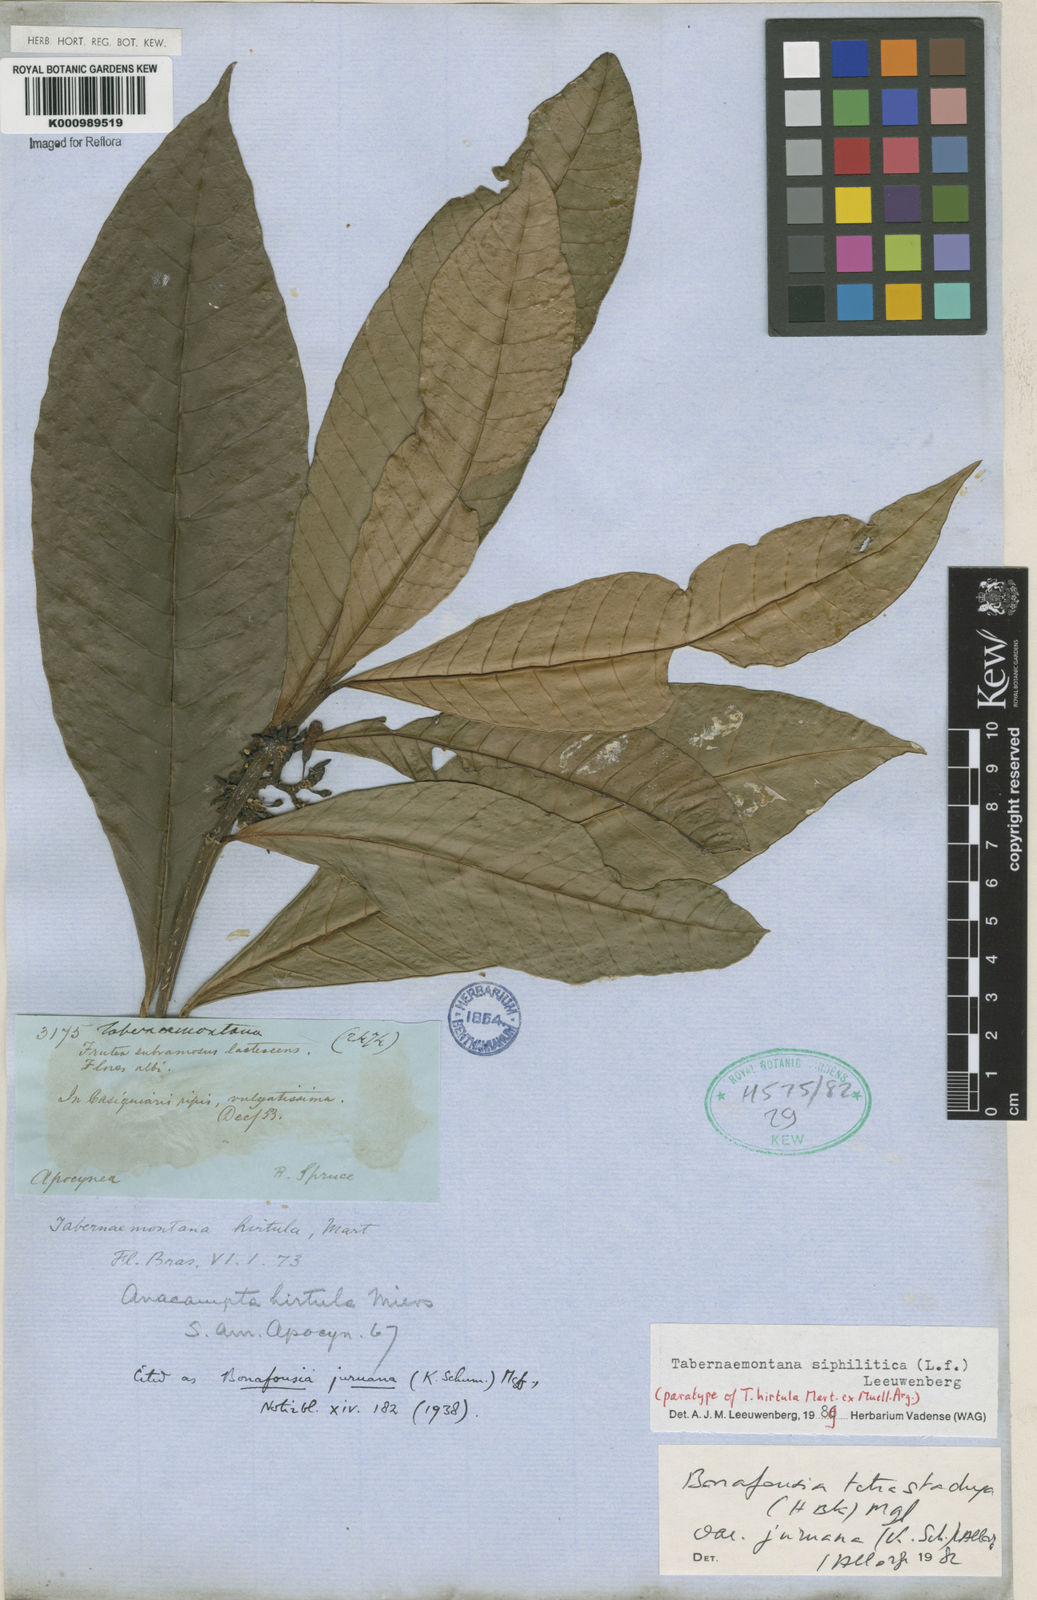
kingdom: Plantae
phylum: Tracheophyta
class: Magnoliopsida
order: Gentianales
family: Apocynaceae
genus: Tabernaemontana
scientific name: Tabernaemontana siphilitica
